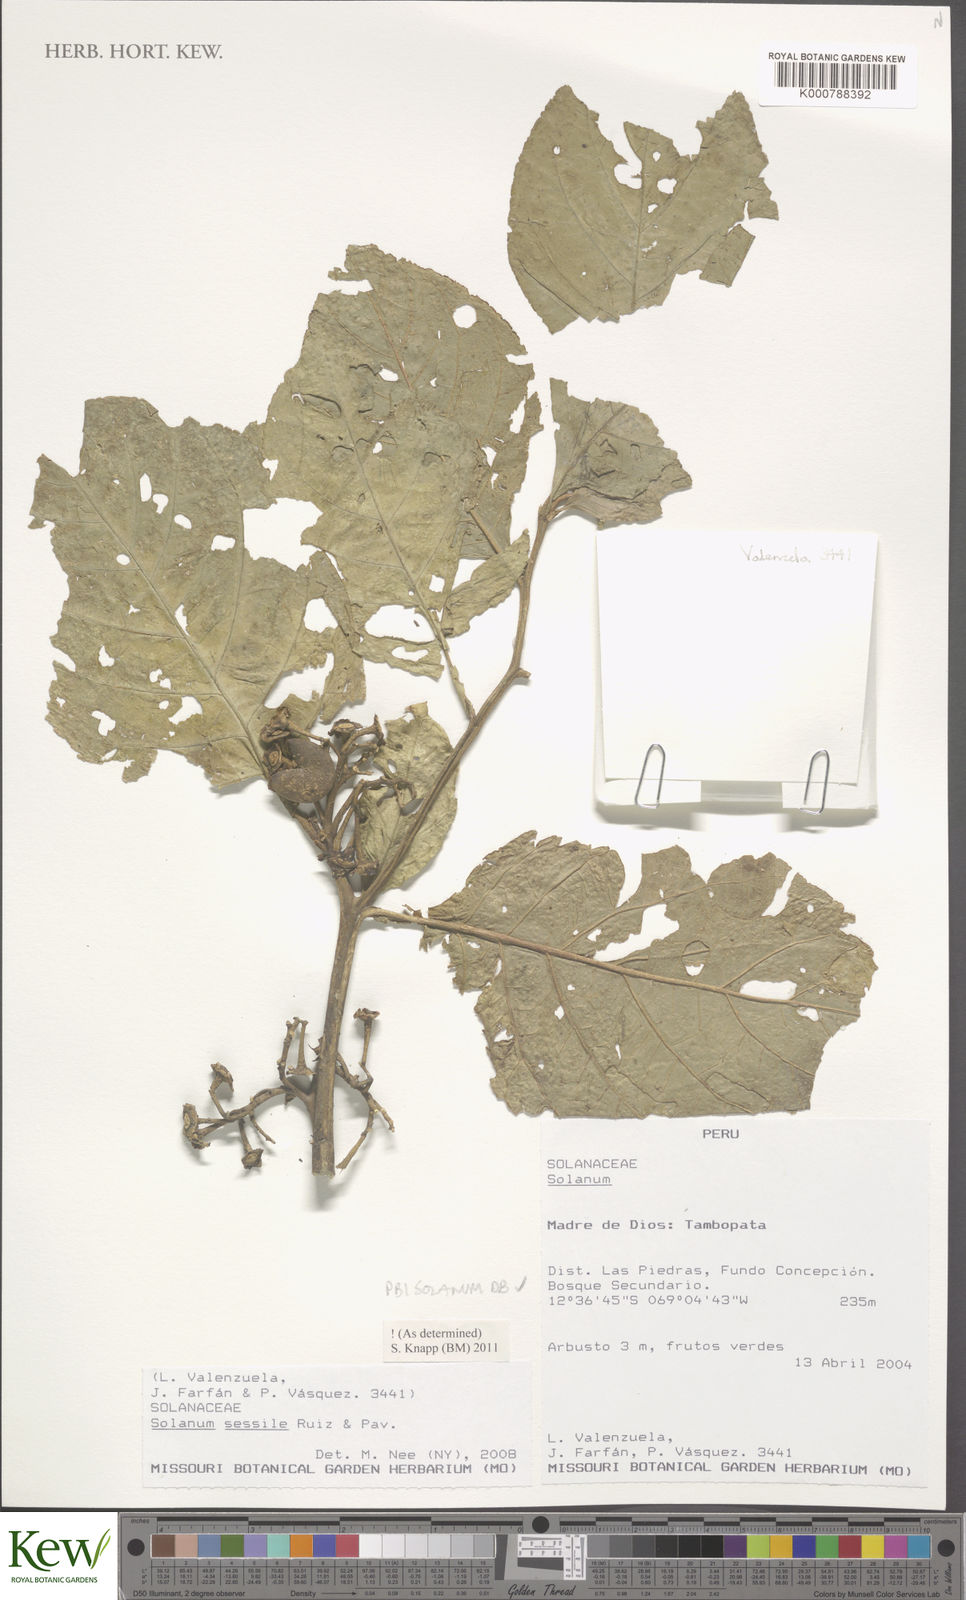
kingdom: Plantae
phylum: Tracheophyta
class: Magnoliopsida
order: Solanales
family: Solanaceae
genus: Solanum
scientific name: Solanum sessile
